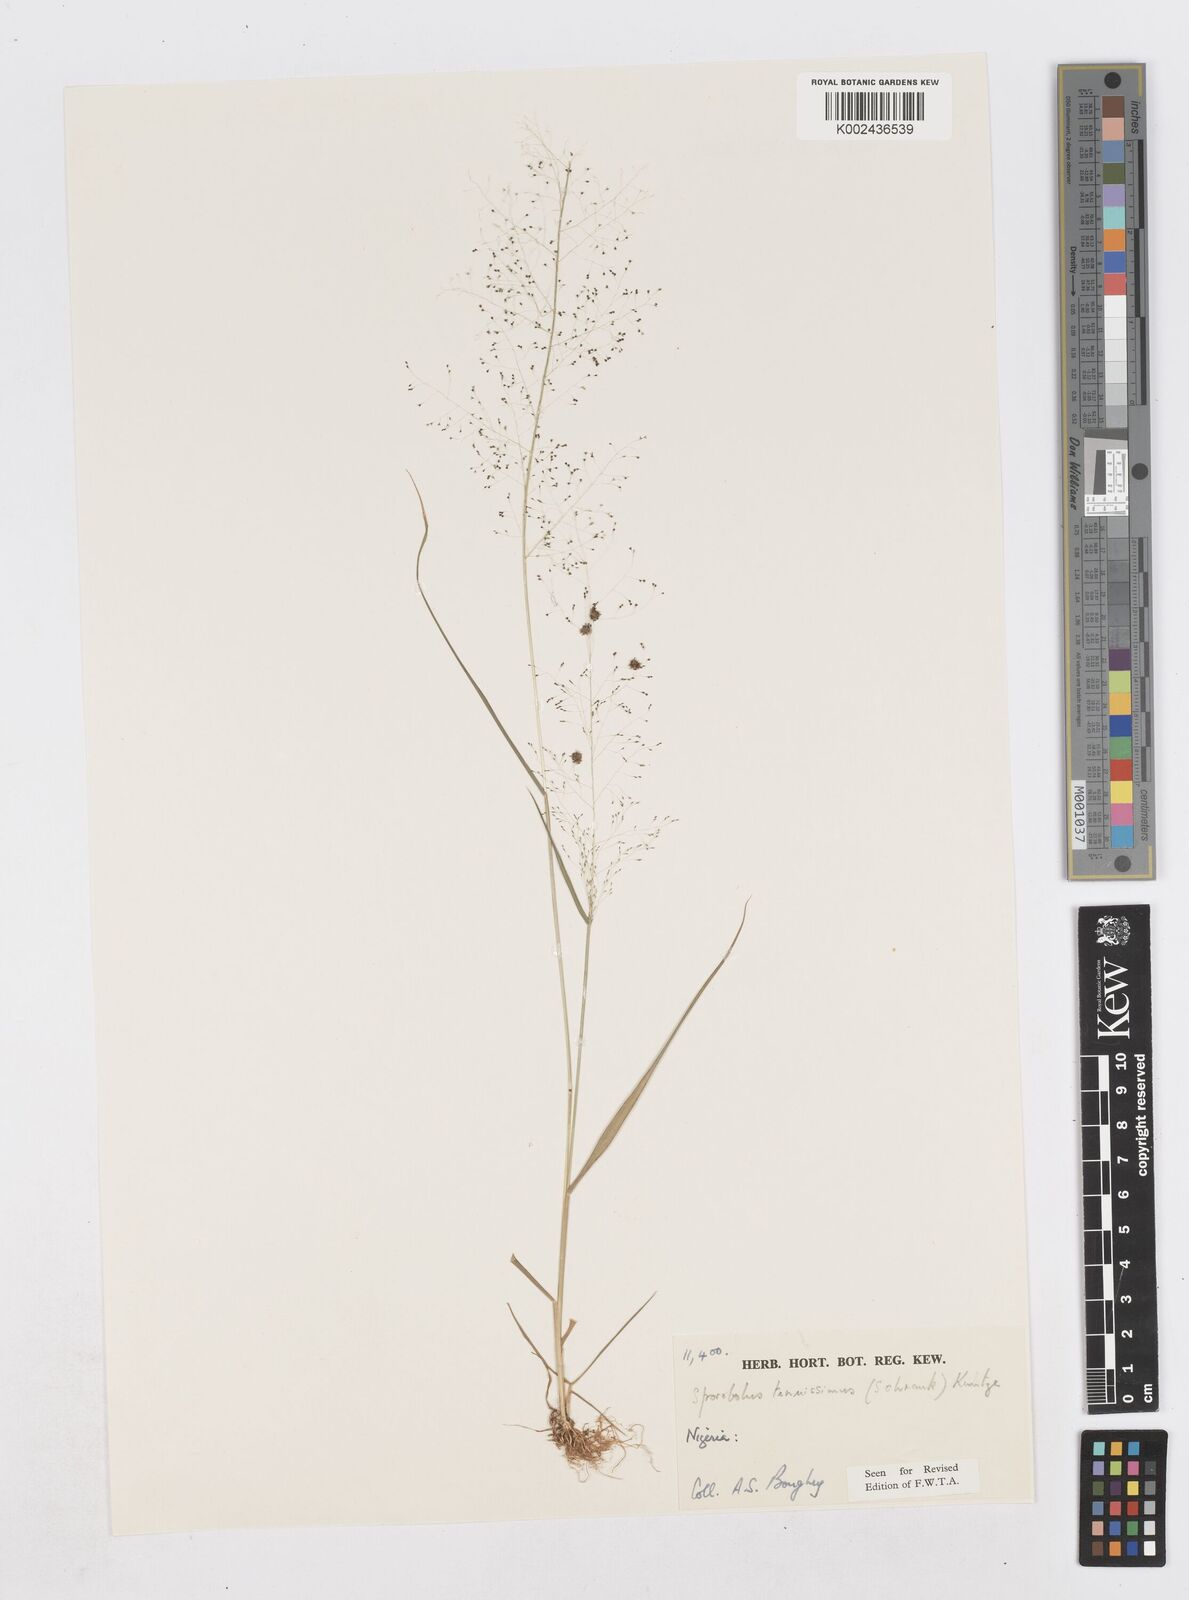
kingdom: Plantae
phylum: Tracheophyta
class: Liliopsida
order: Poales
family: Poaceae
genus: Sporobolus
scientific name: Sporobolus tenuissimus
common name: Tropical dropseed
